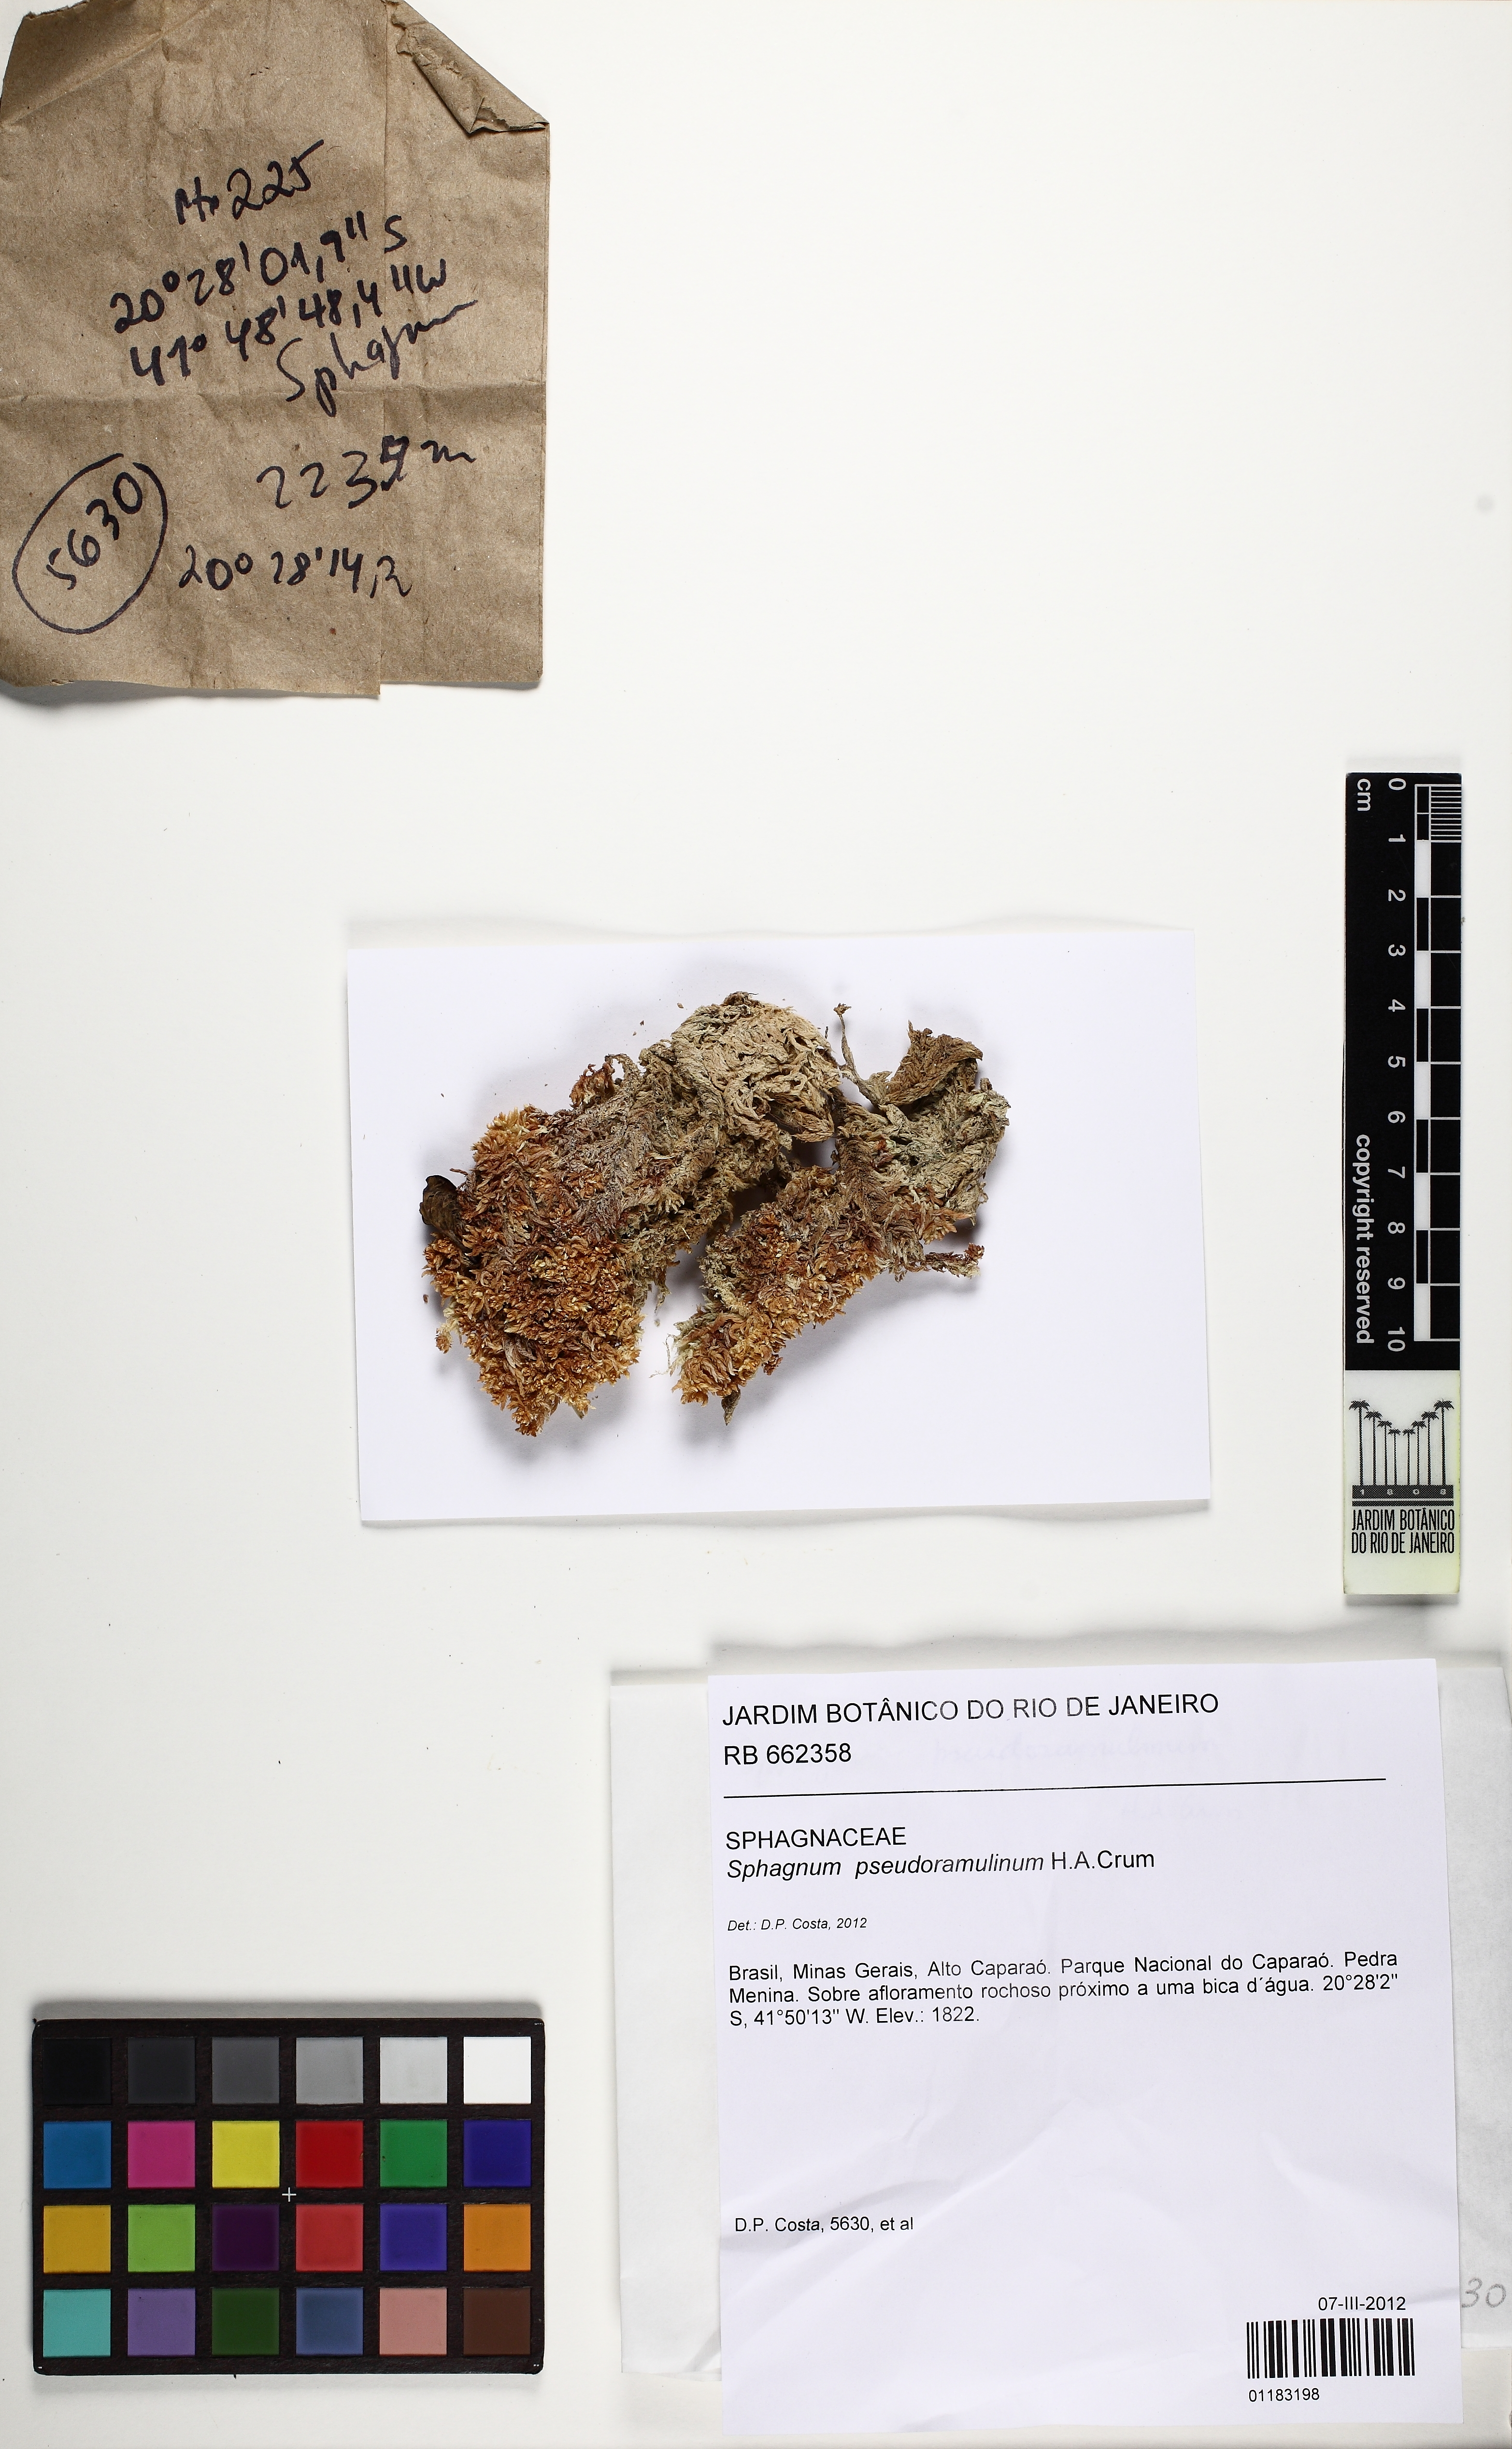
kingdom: Plantae
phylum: Bryophyta
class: Sphagnopsida
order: Sphagnales
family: Sphagnaceae
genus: Sphagnum
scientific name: Sphagnum pseudoramulinum
